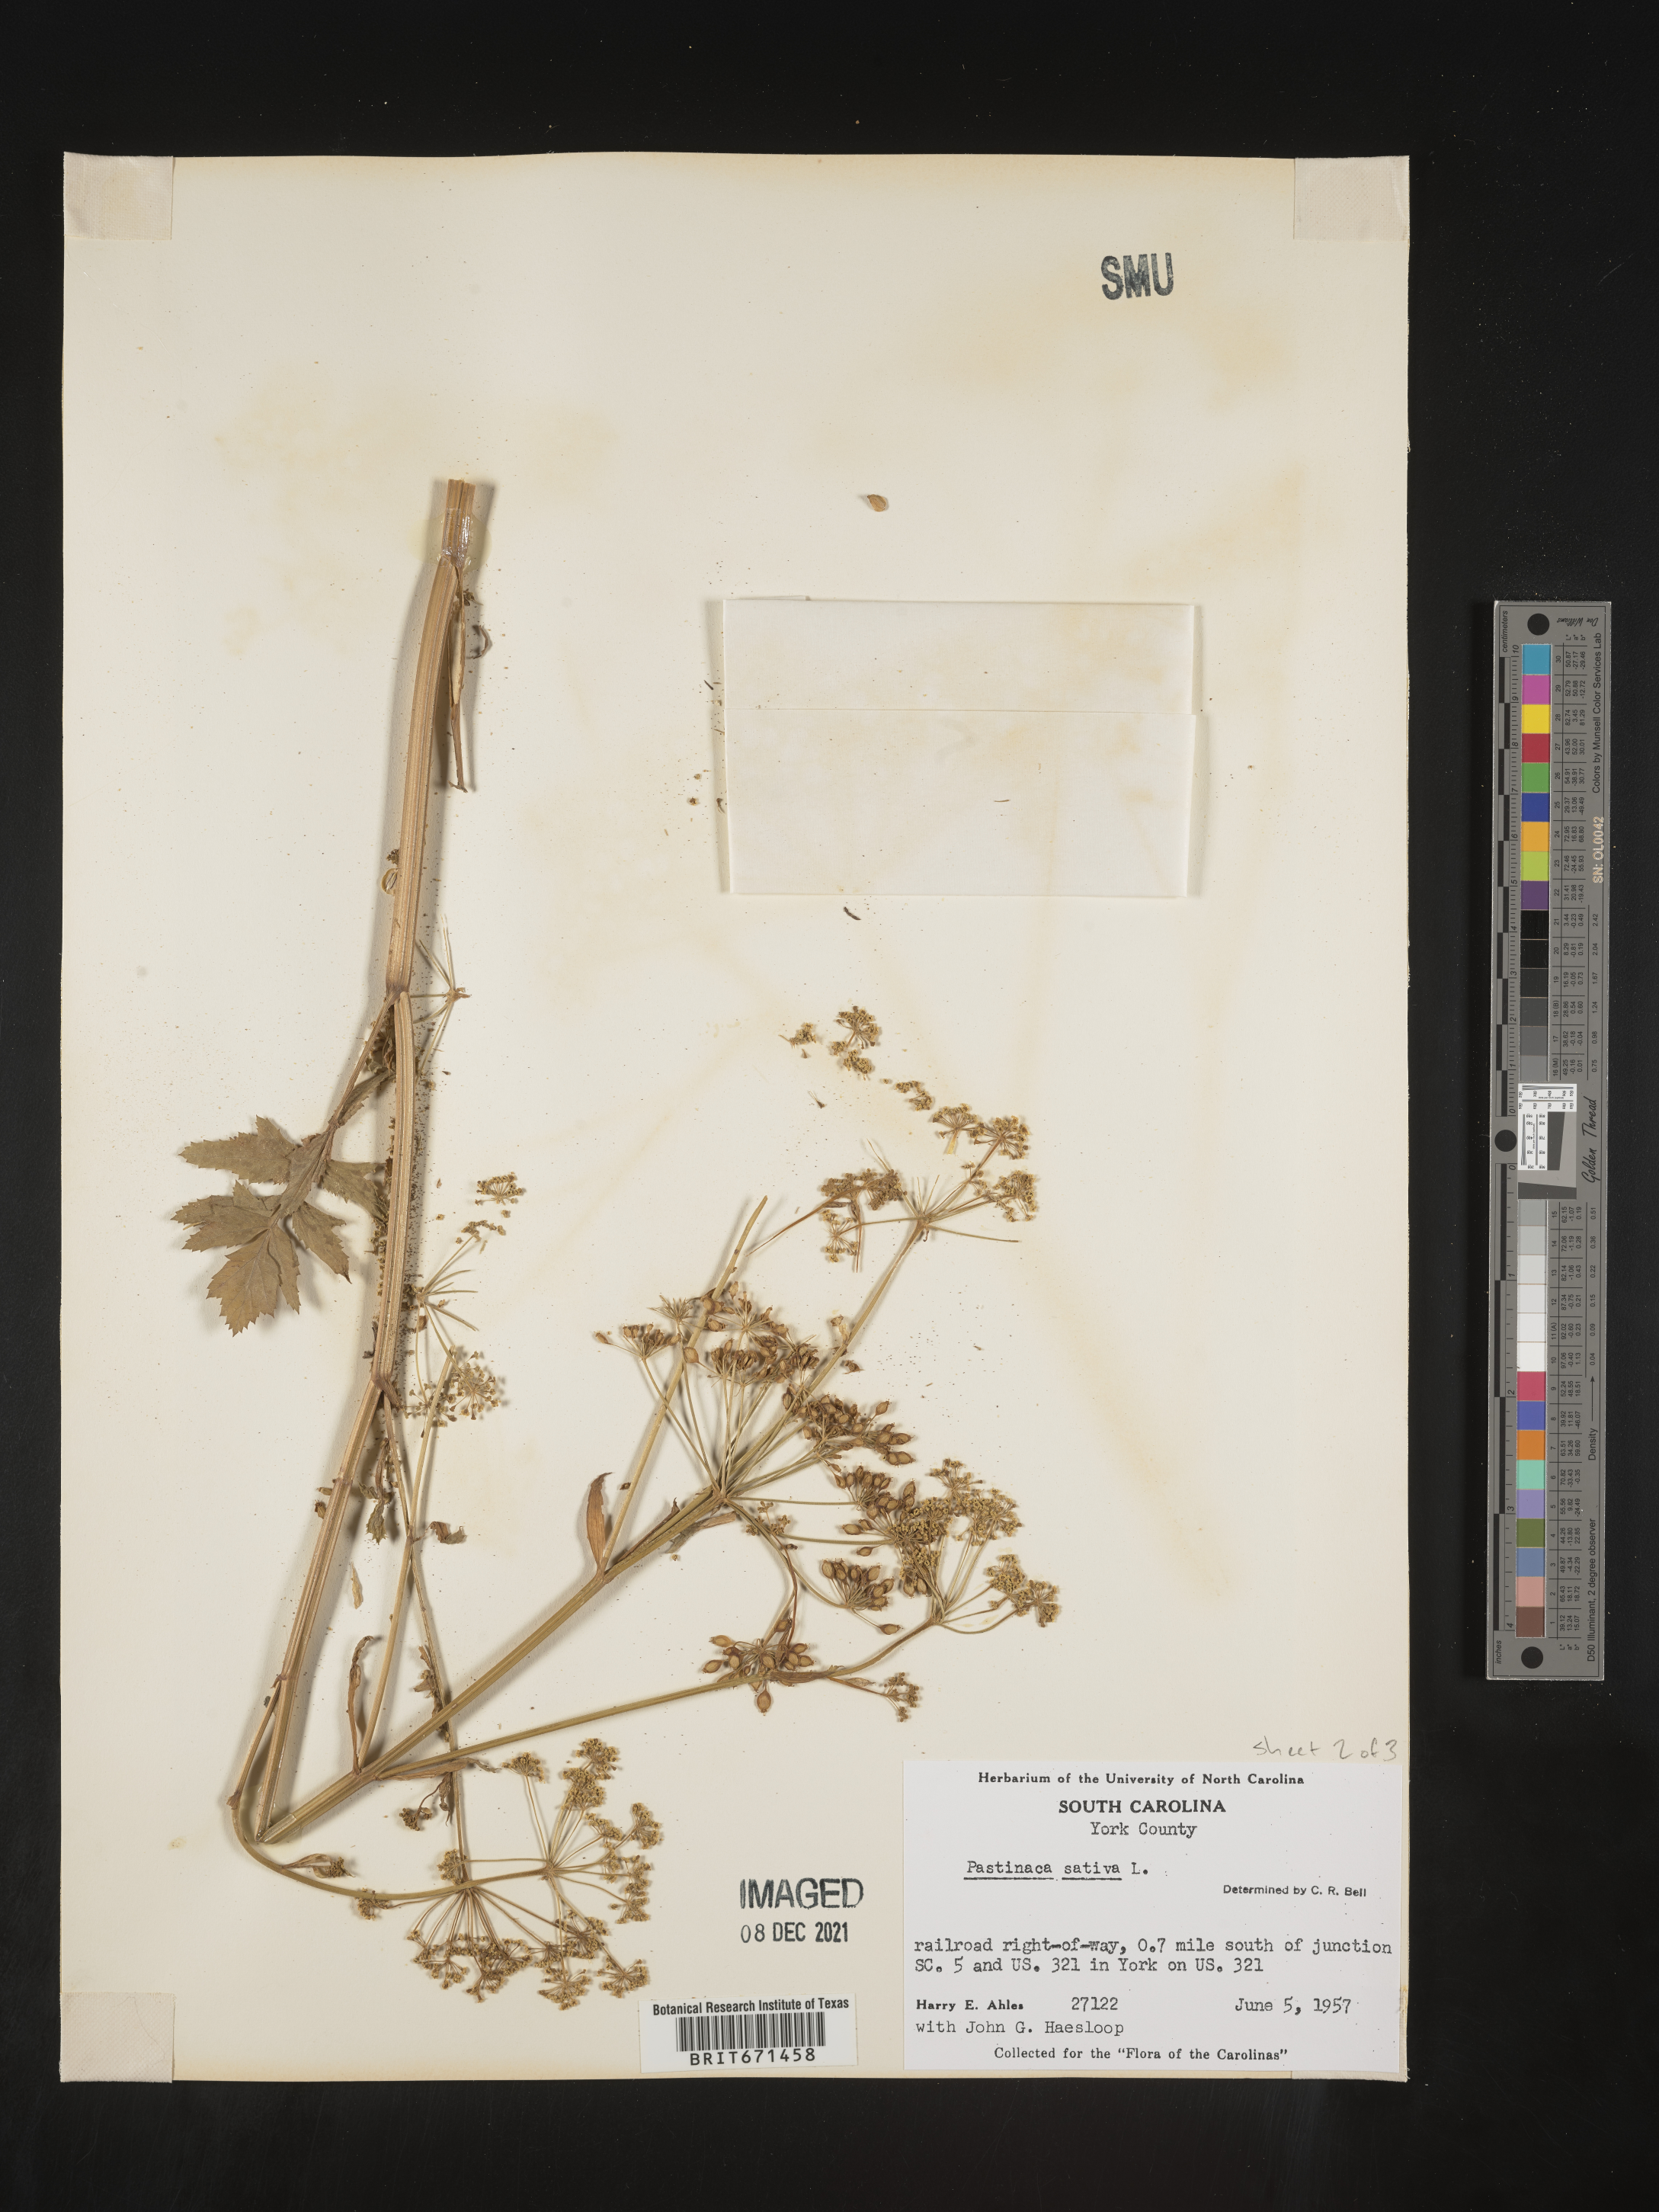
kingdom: Plantae
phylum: Tracheophyta
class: Magnoliopsida
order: Apiales
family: Apiaceae
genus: Pastinaca
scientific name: Pastinaca
